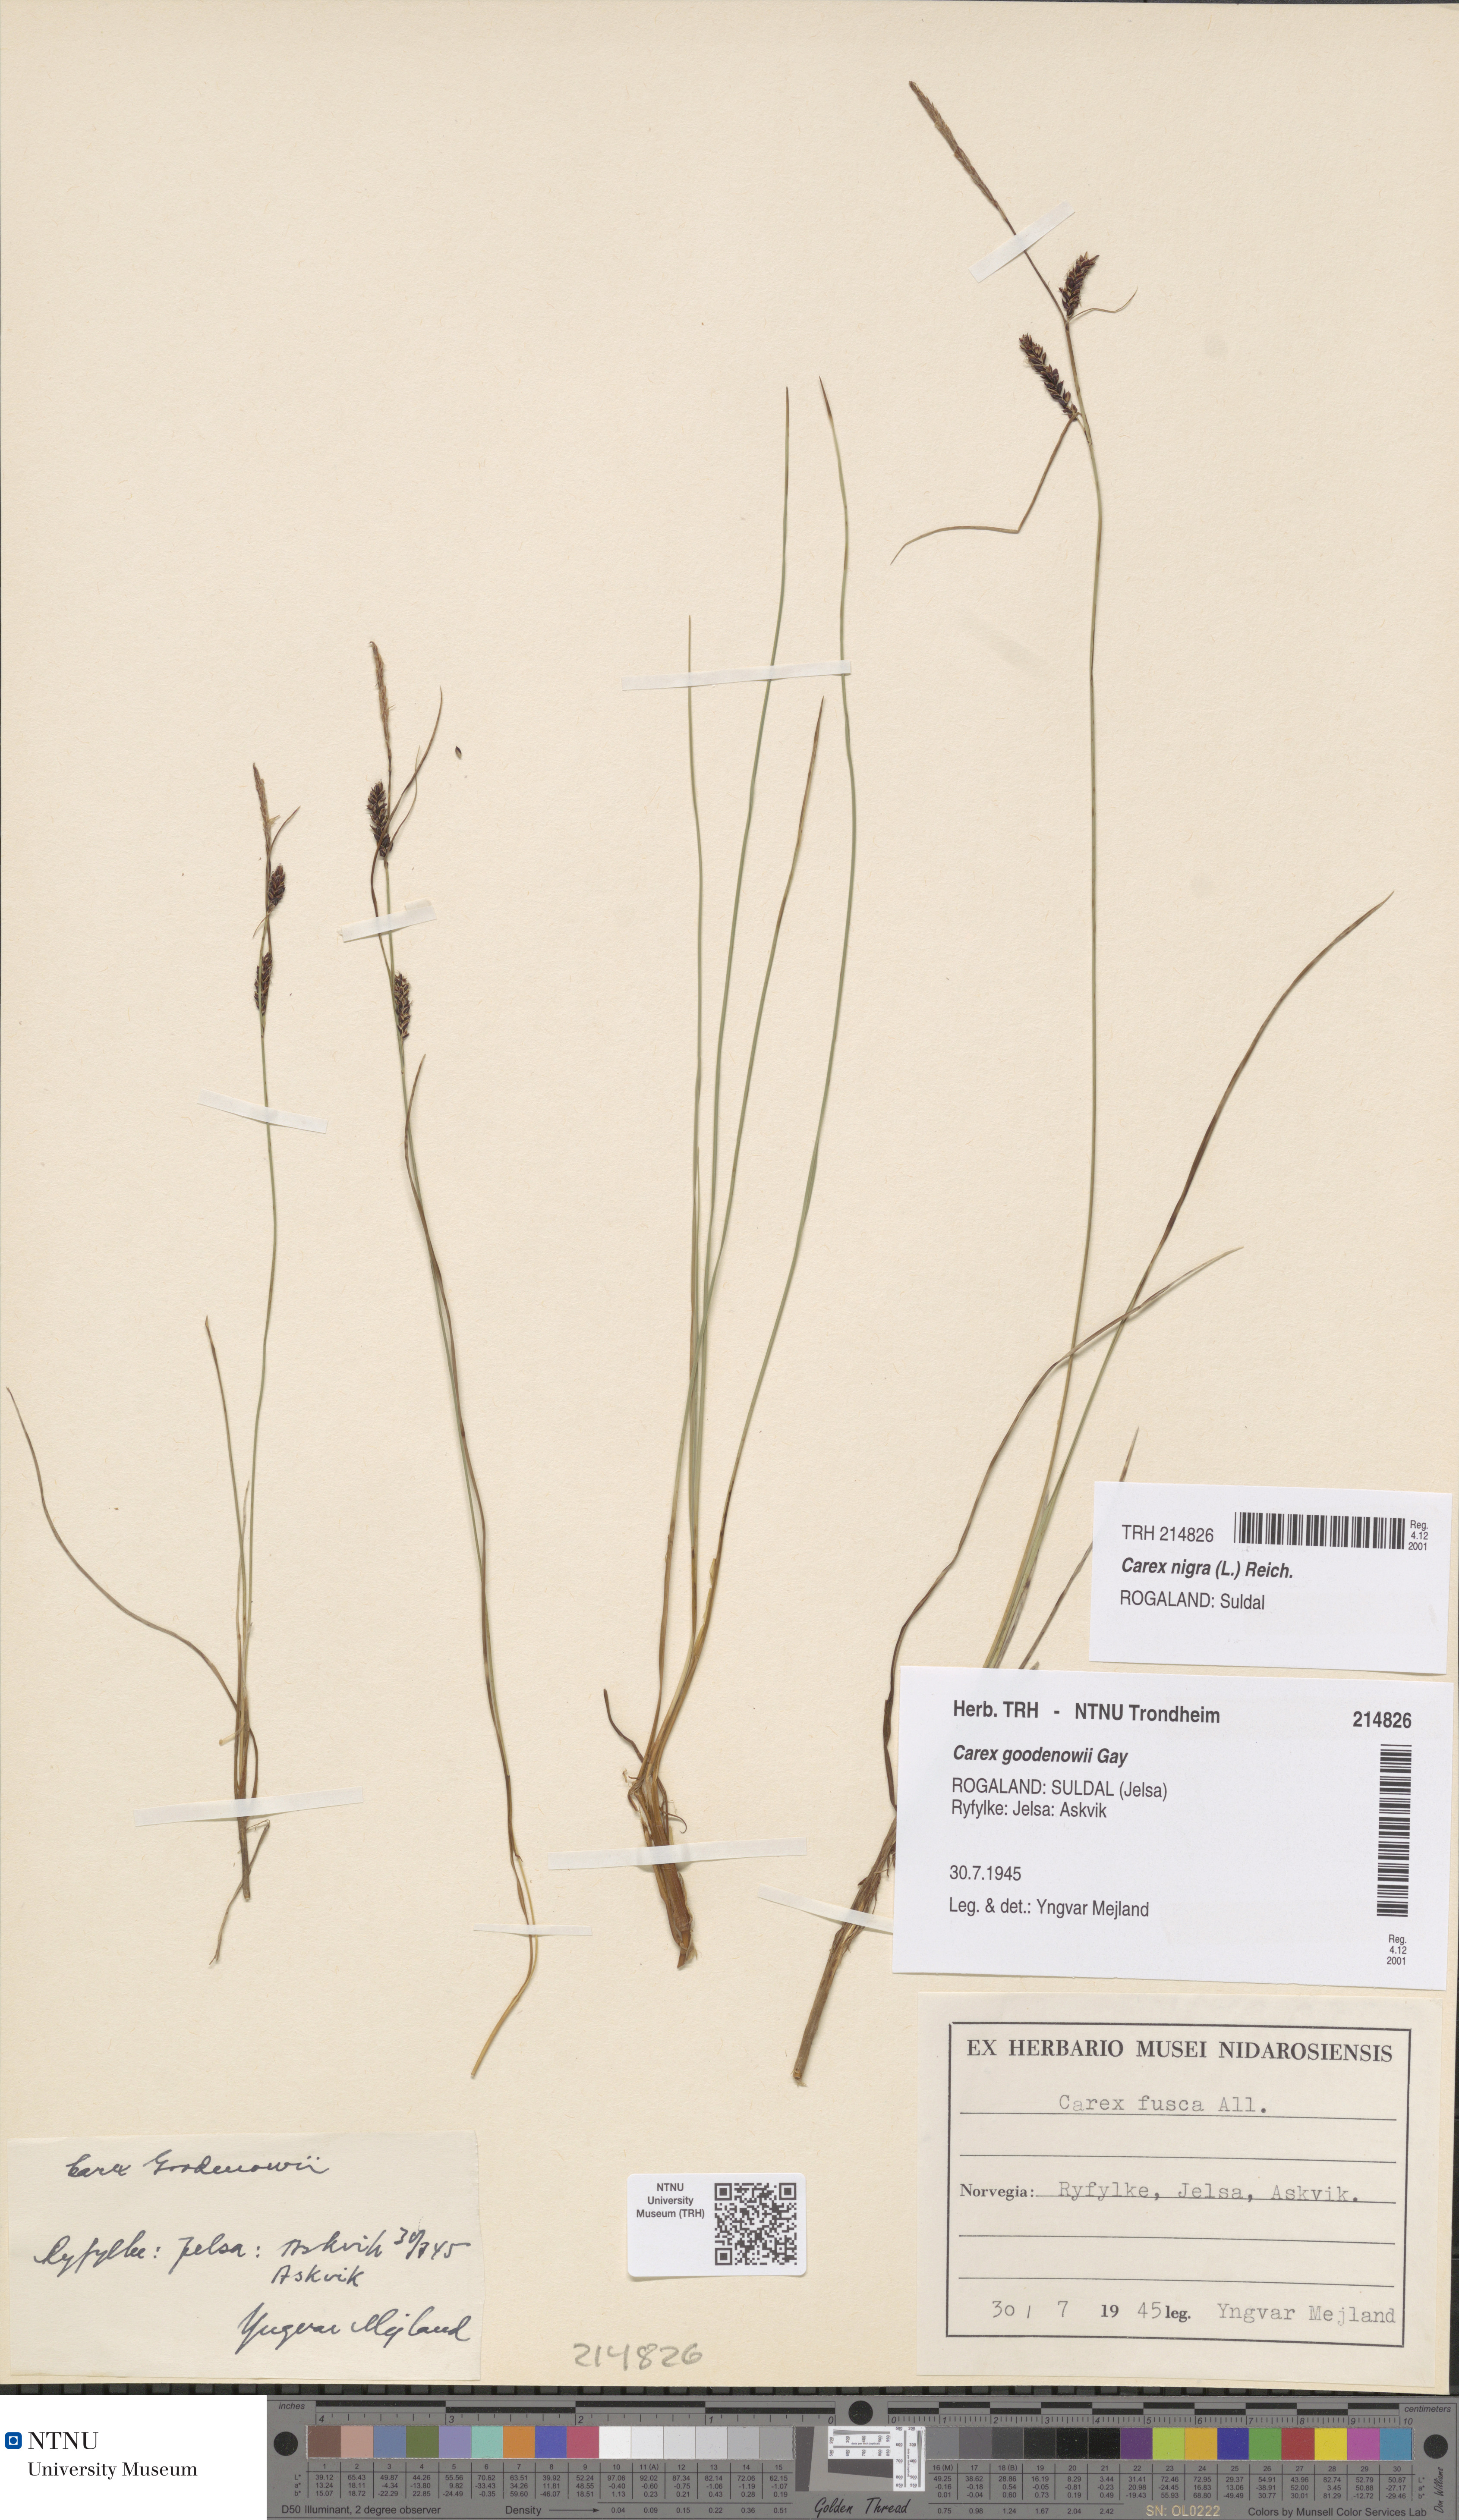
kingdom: Plantae
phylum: Tracheophyta
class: Liliopsida
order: Poales
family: Cyperaceae
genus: Carex
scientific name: Carex nigra
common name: Common sedge
